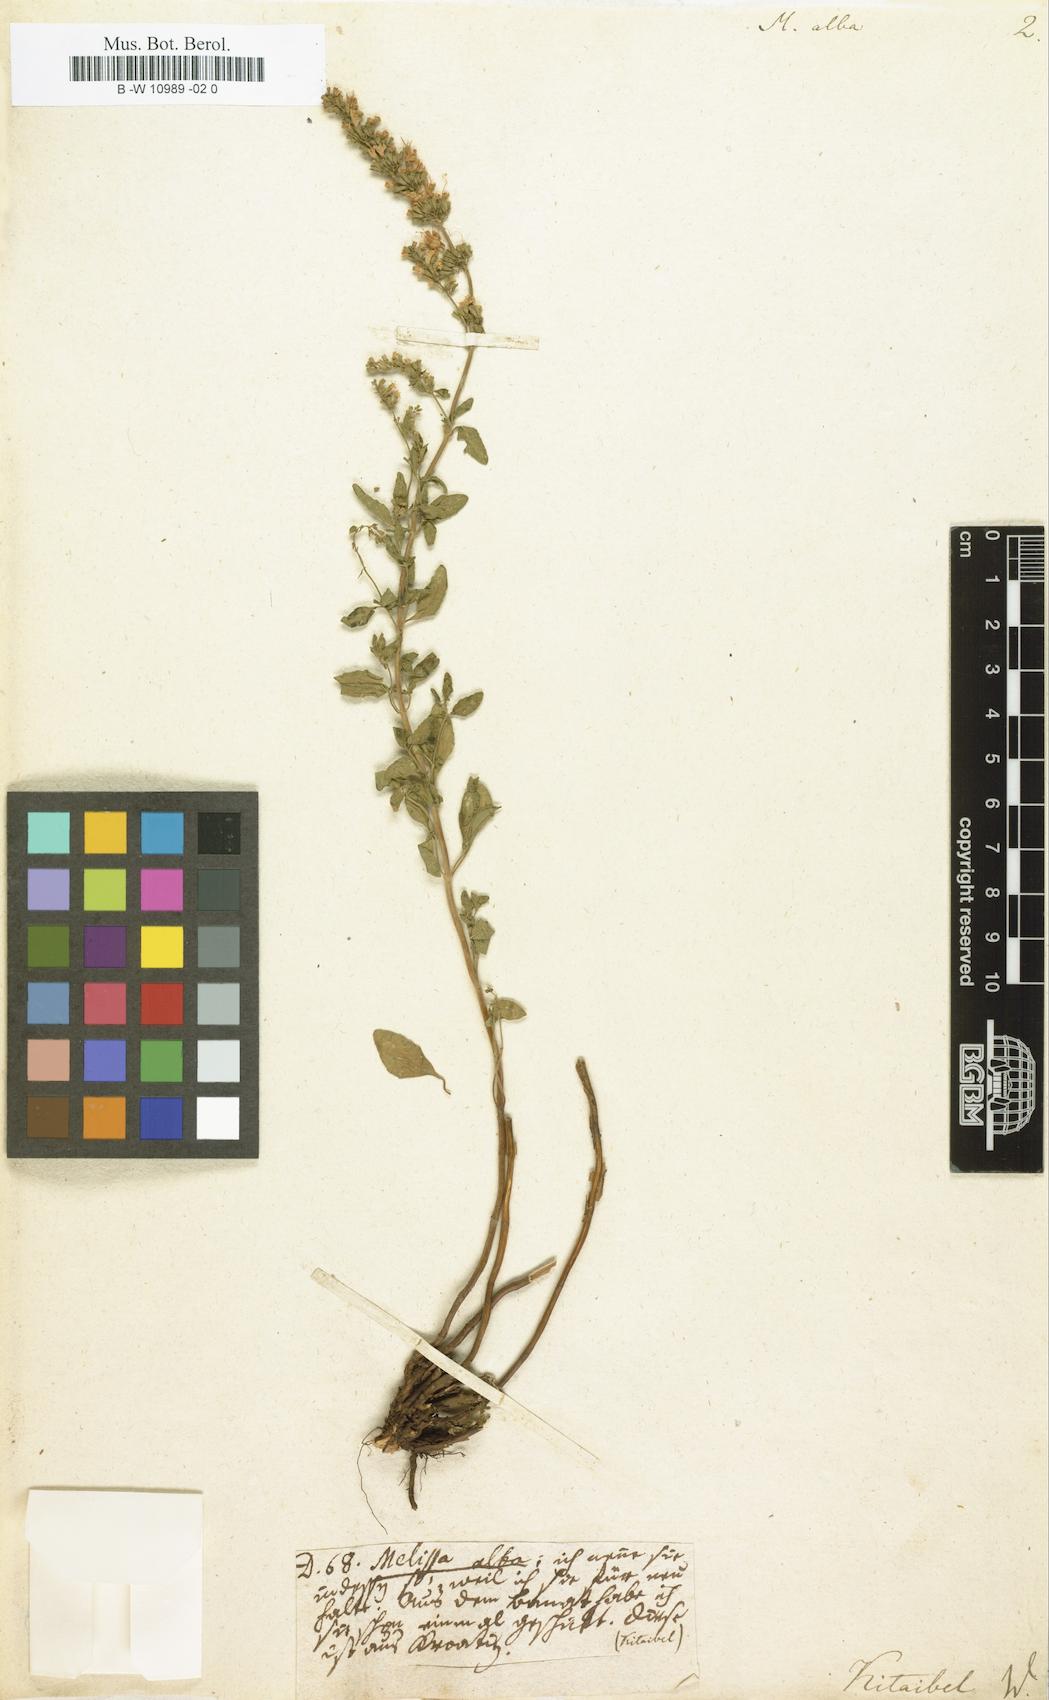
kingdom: Plantae
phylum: Tracheophyta
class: Magnoliopsida
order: Lamiales
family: Lamiaceae
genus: Clinopodium
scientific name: Clinopodium album
